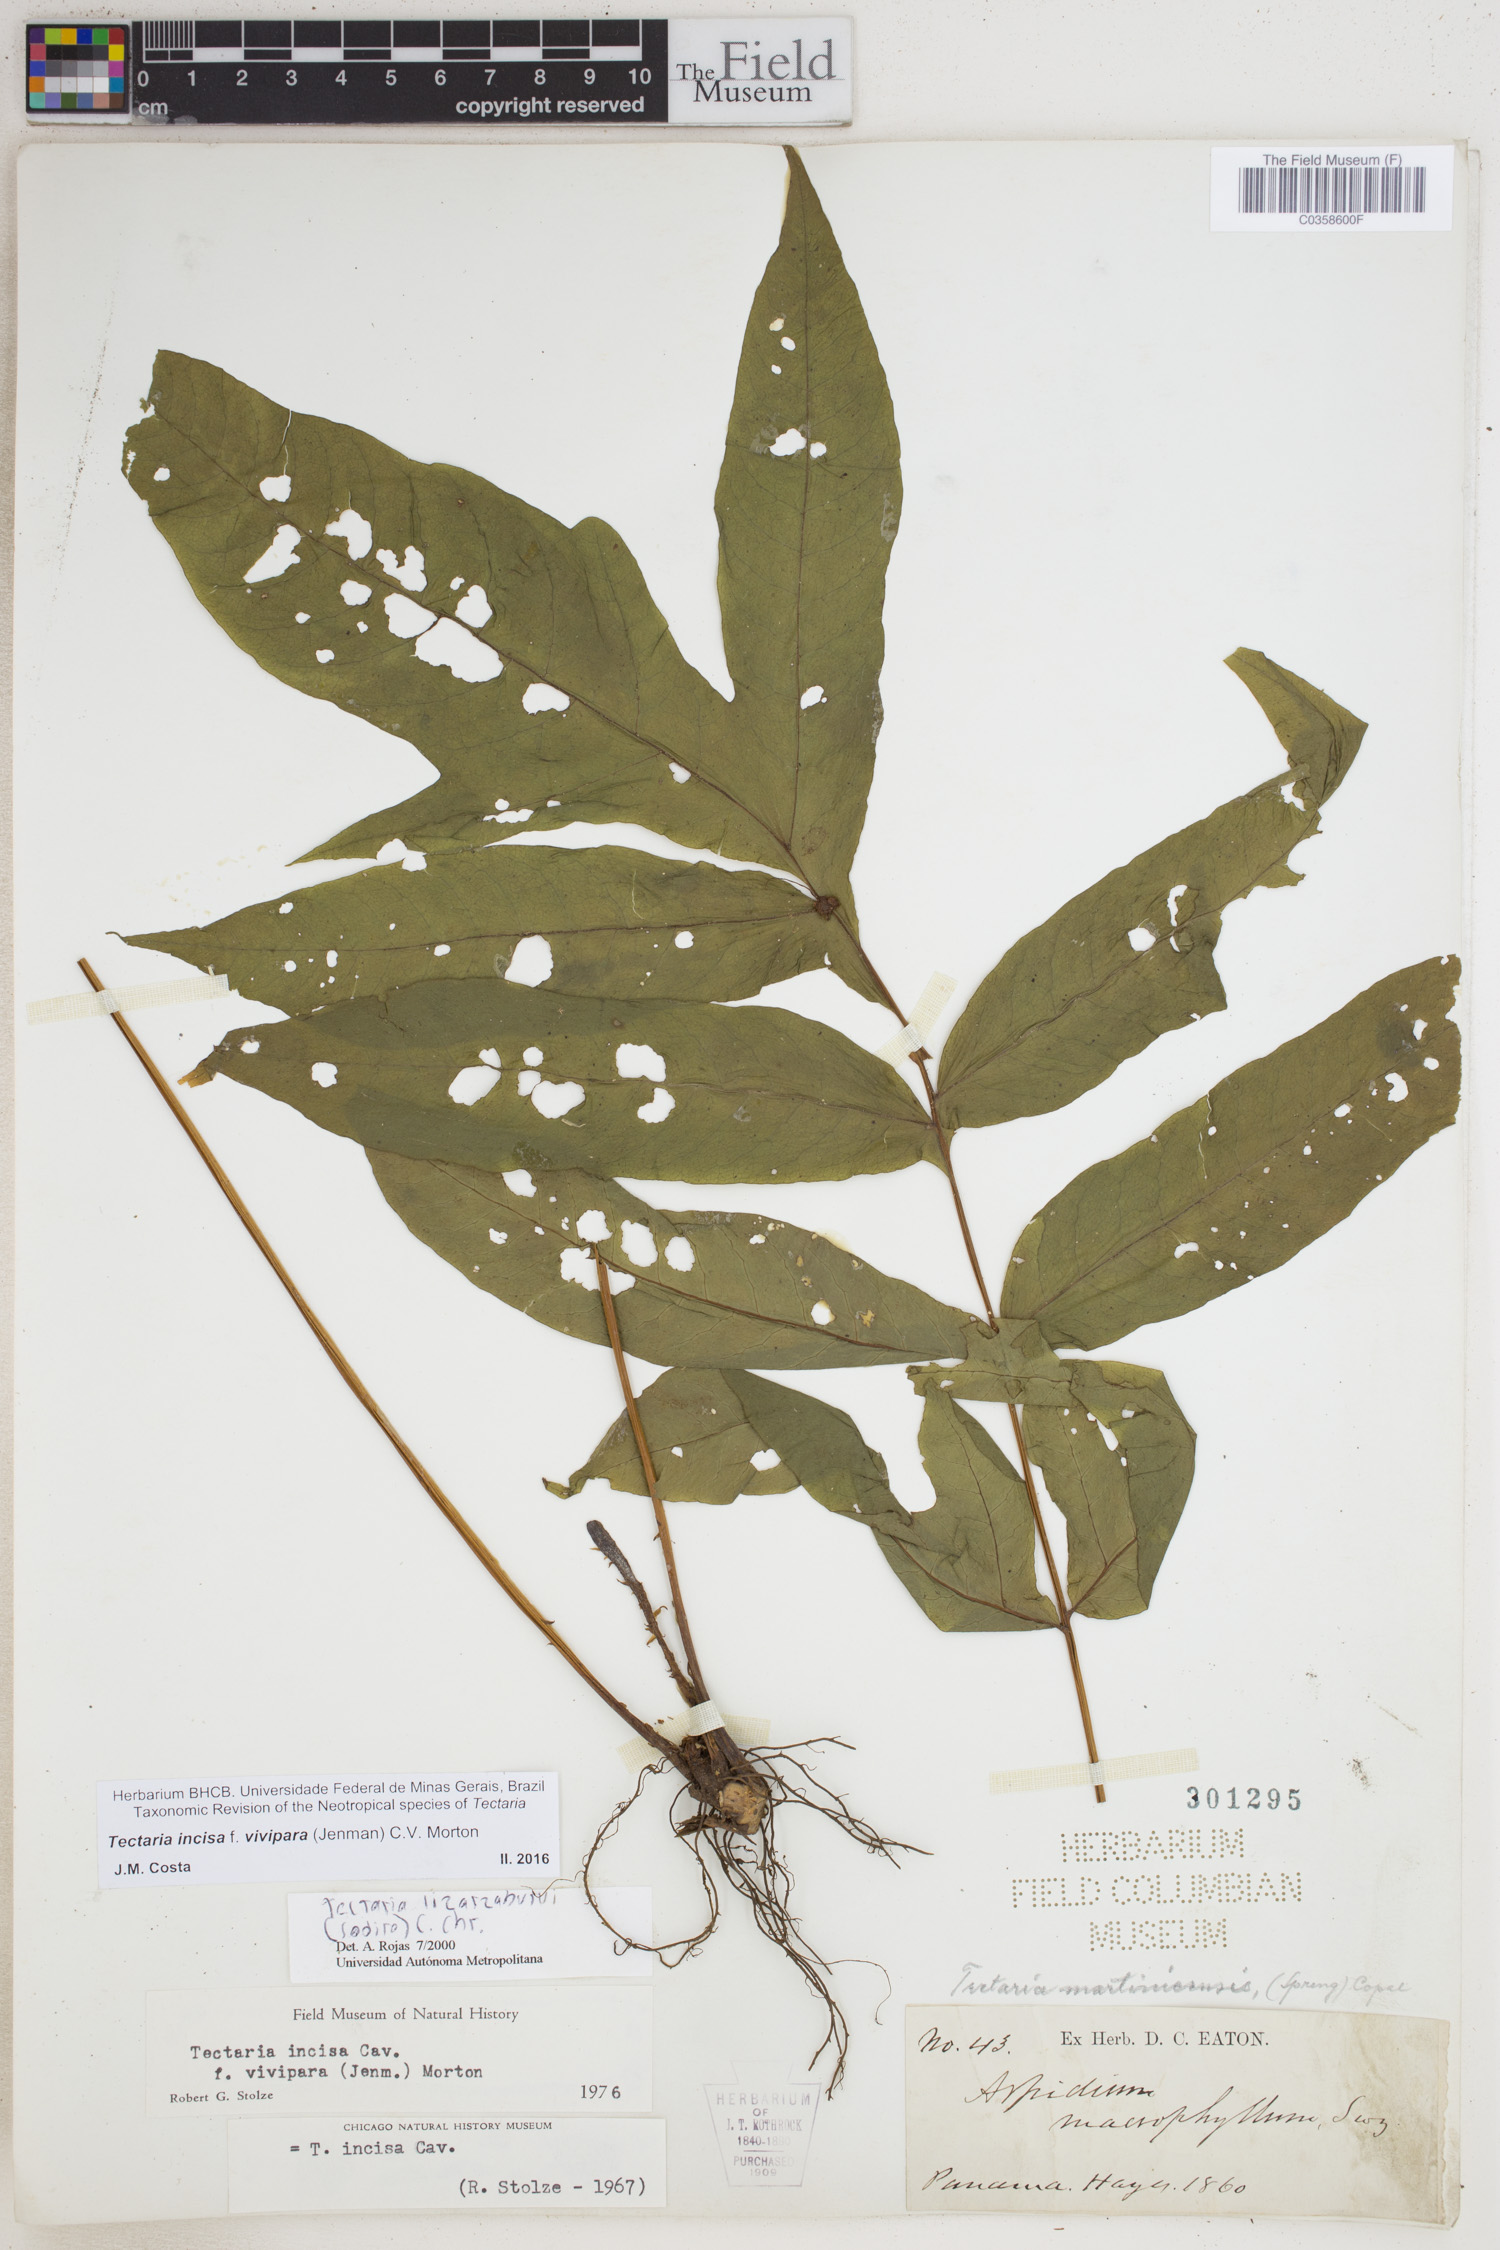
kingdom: Plantae
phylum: Tracheophyta
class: Polypodiopsida
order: Polypodiales
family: Tectariaceae
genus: Tectaria
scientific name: Tectaria incisa
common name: Incised halberd fern
